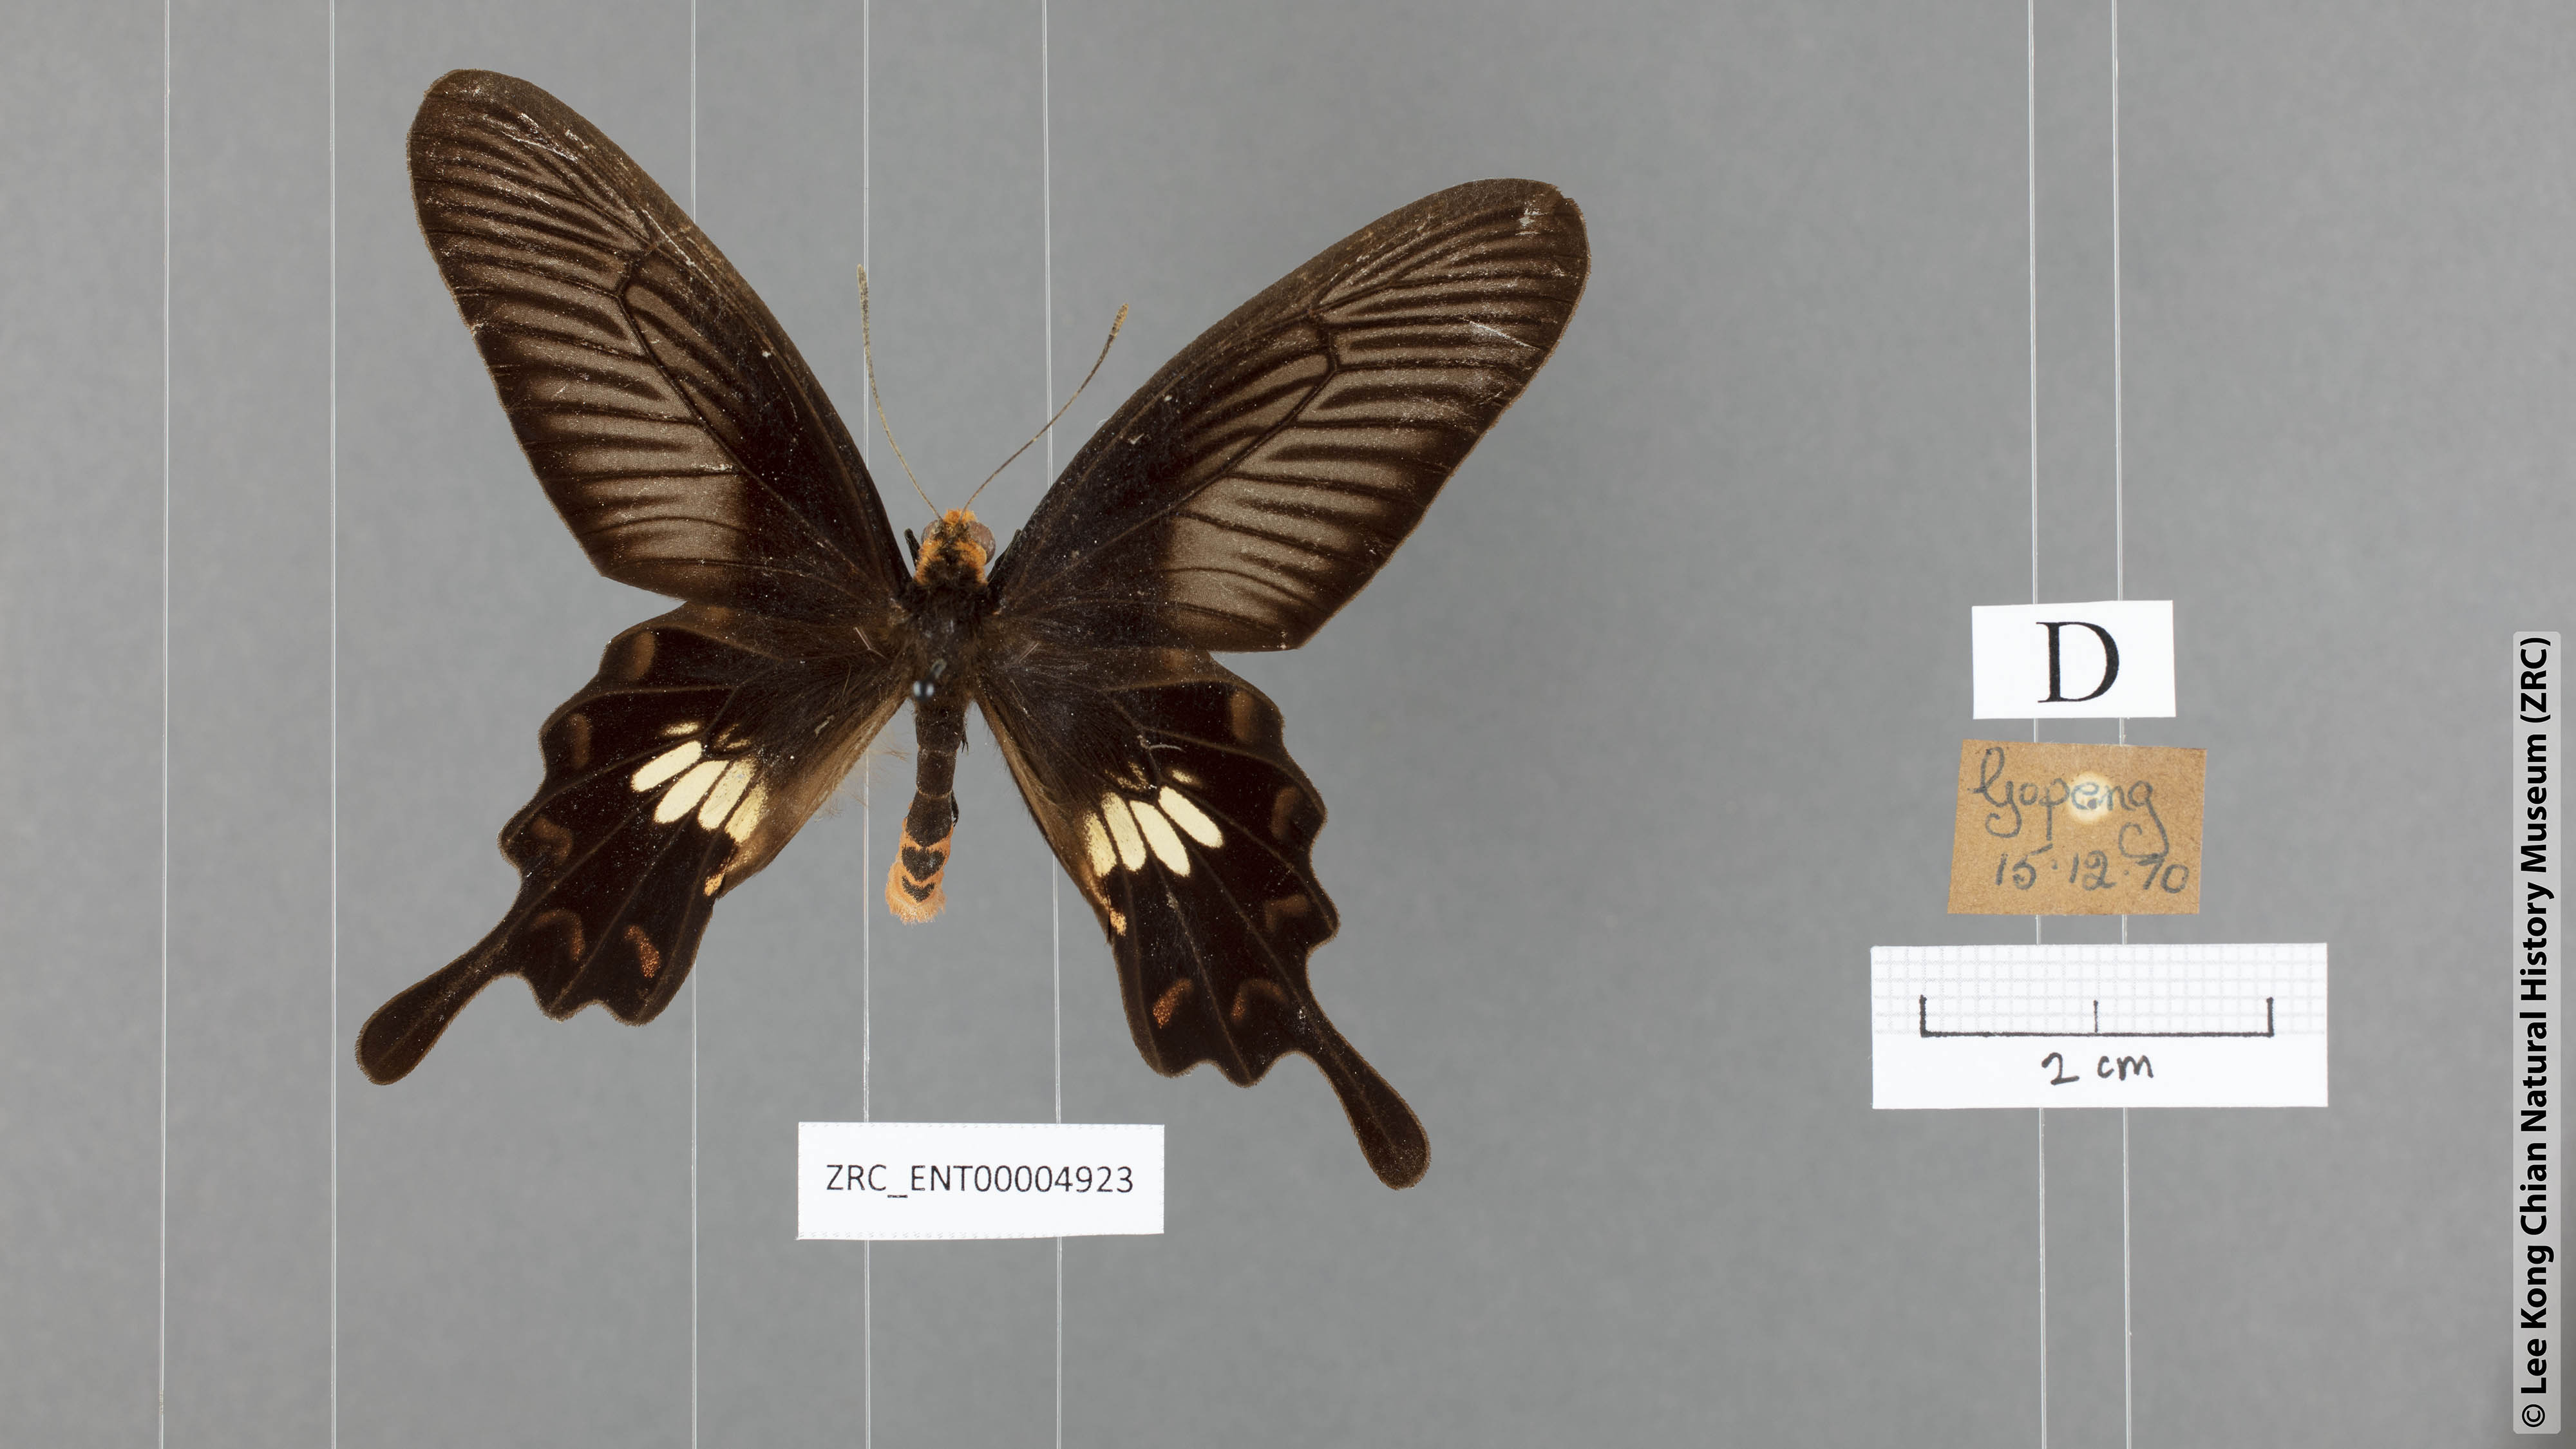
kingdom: Animalia
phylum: Arthropoda
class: Insecta
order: Lepidoptera
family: Papilionidae
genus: Pachliopta
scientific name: Pachliopta aristolochiae
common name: Common rose
